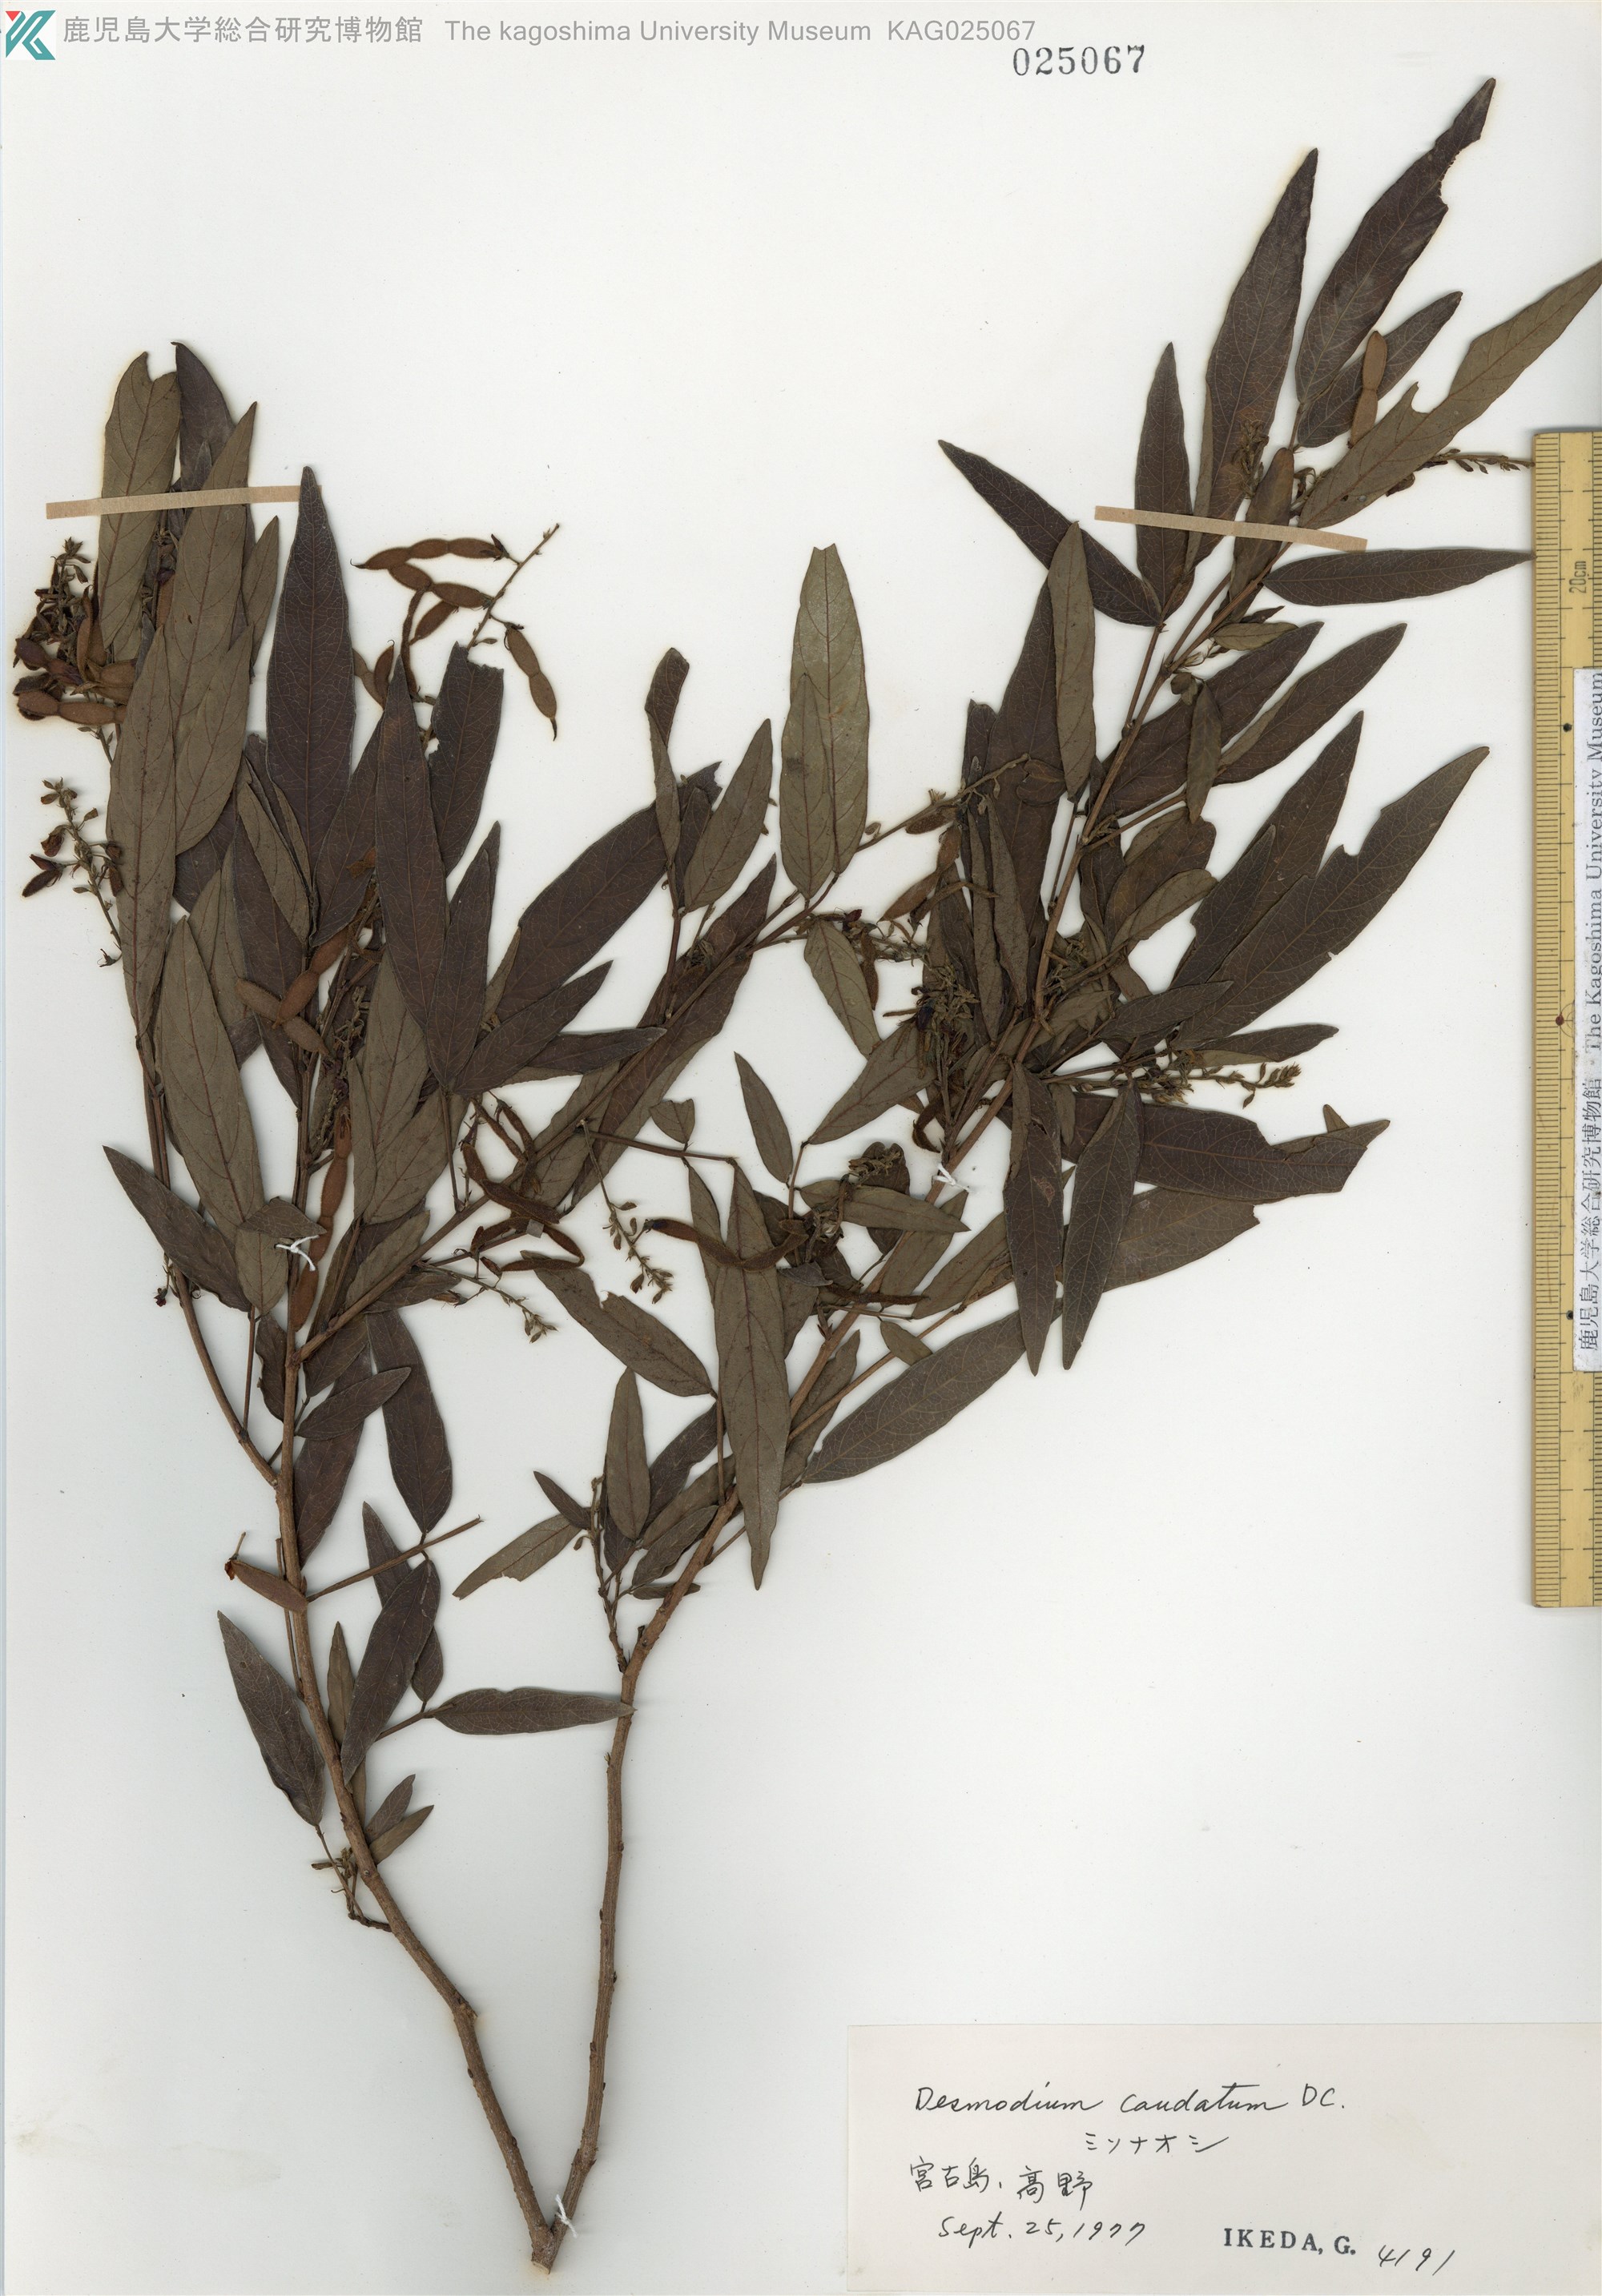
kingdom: Plantae
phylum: Tracheophyta
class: Magnoliopsida
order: Fabales
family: Fabaceae
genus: Ohwia
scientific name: Ohwia caudata
